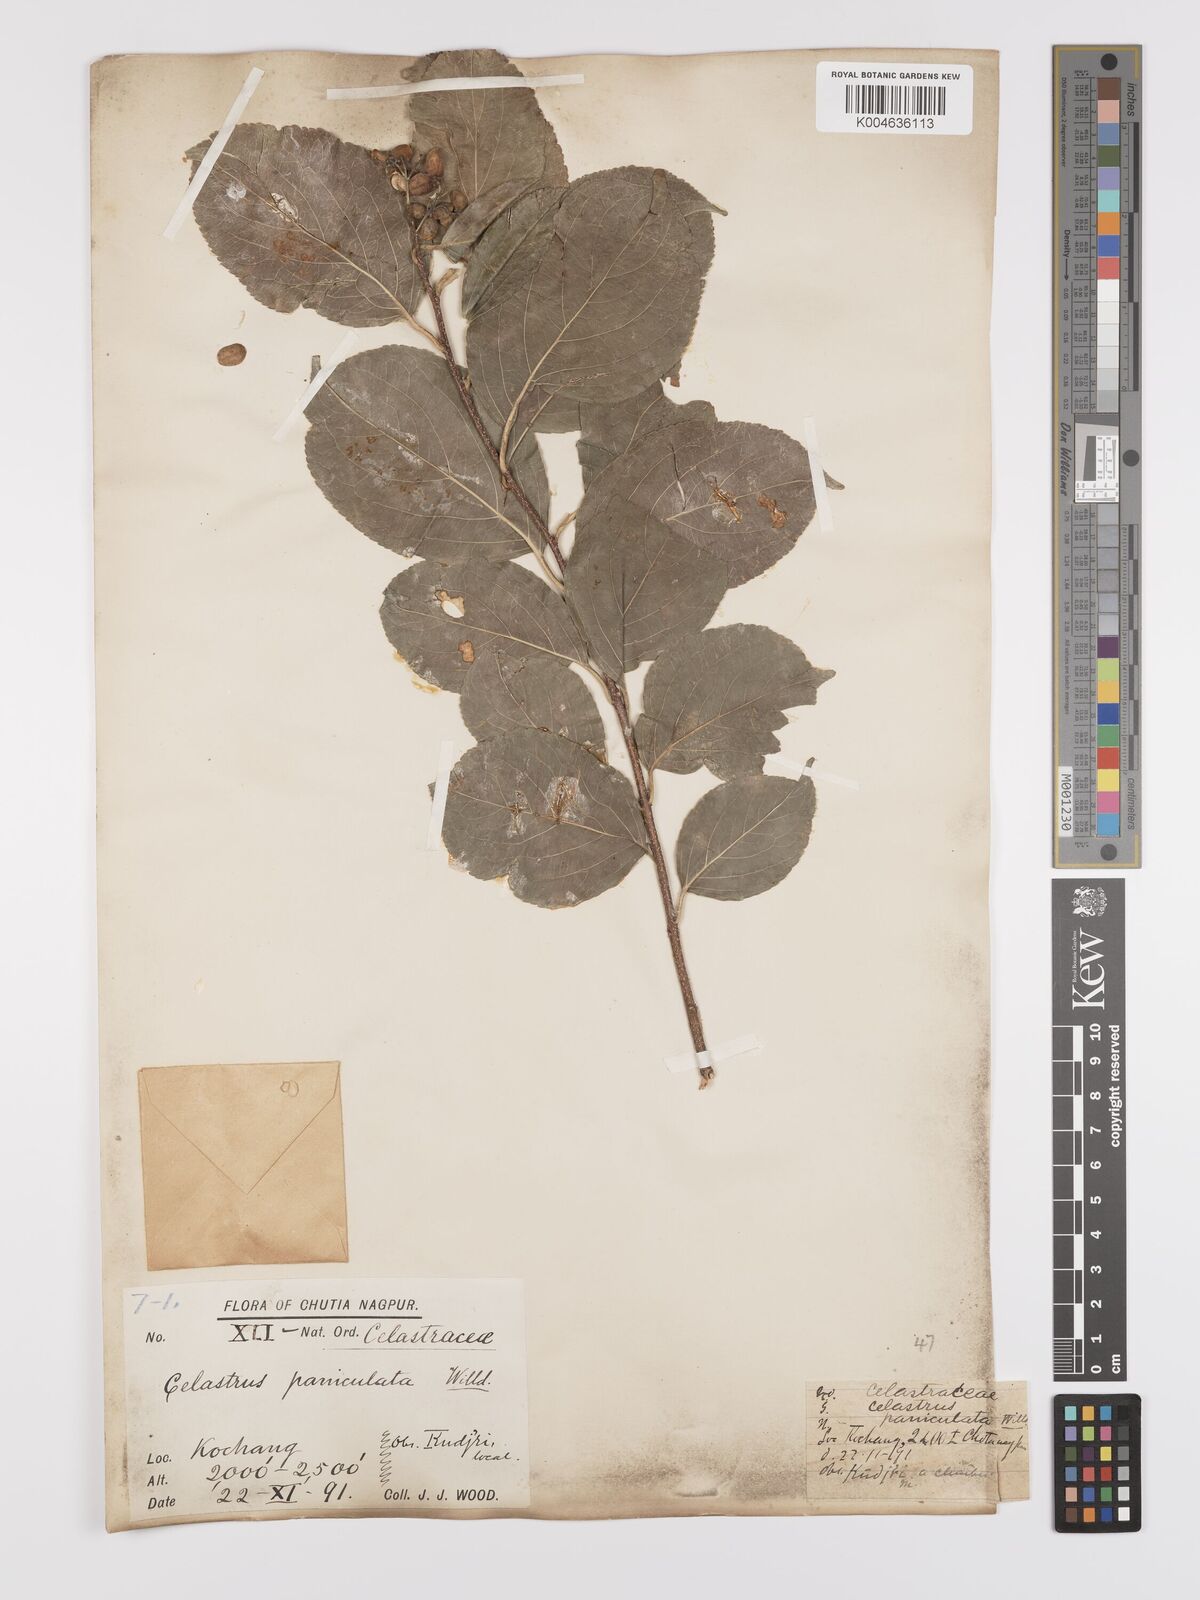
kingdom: Plantae
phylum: Tracheophyta
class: Magnoliopsida
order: Celastrales
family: Celastraceae
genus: Celastrus
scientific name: Celastrus
